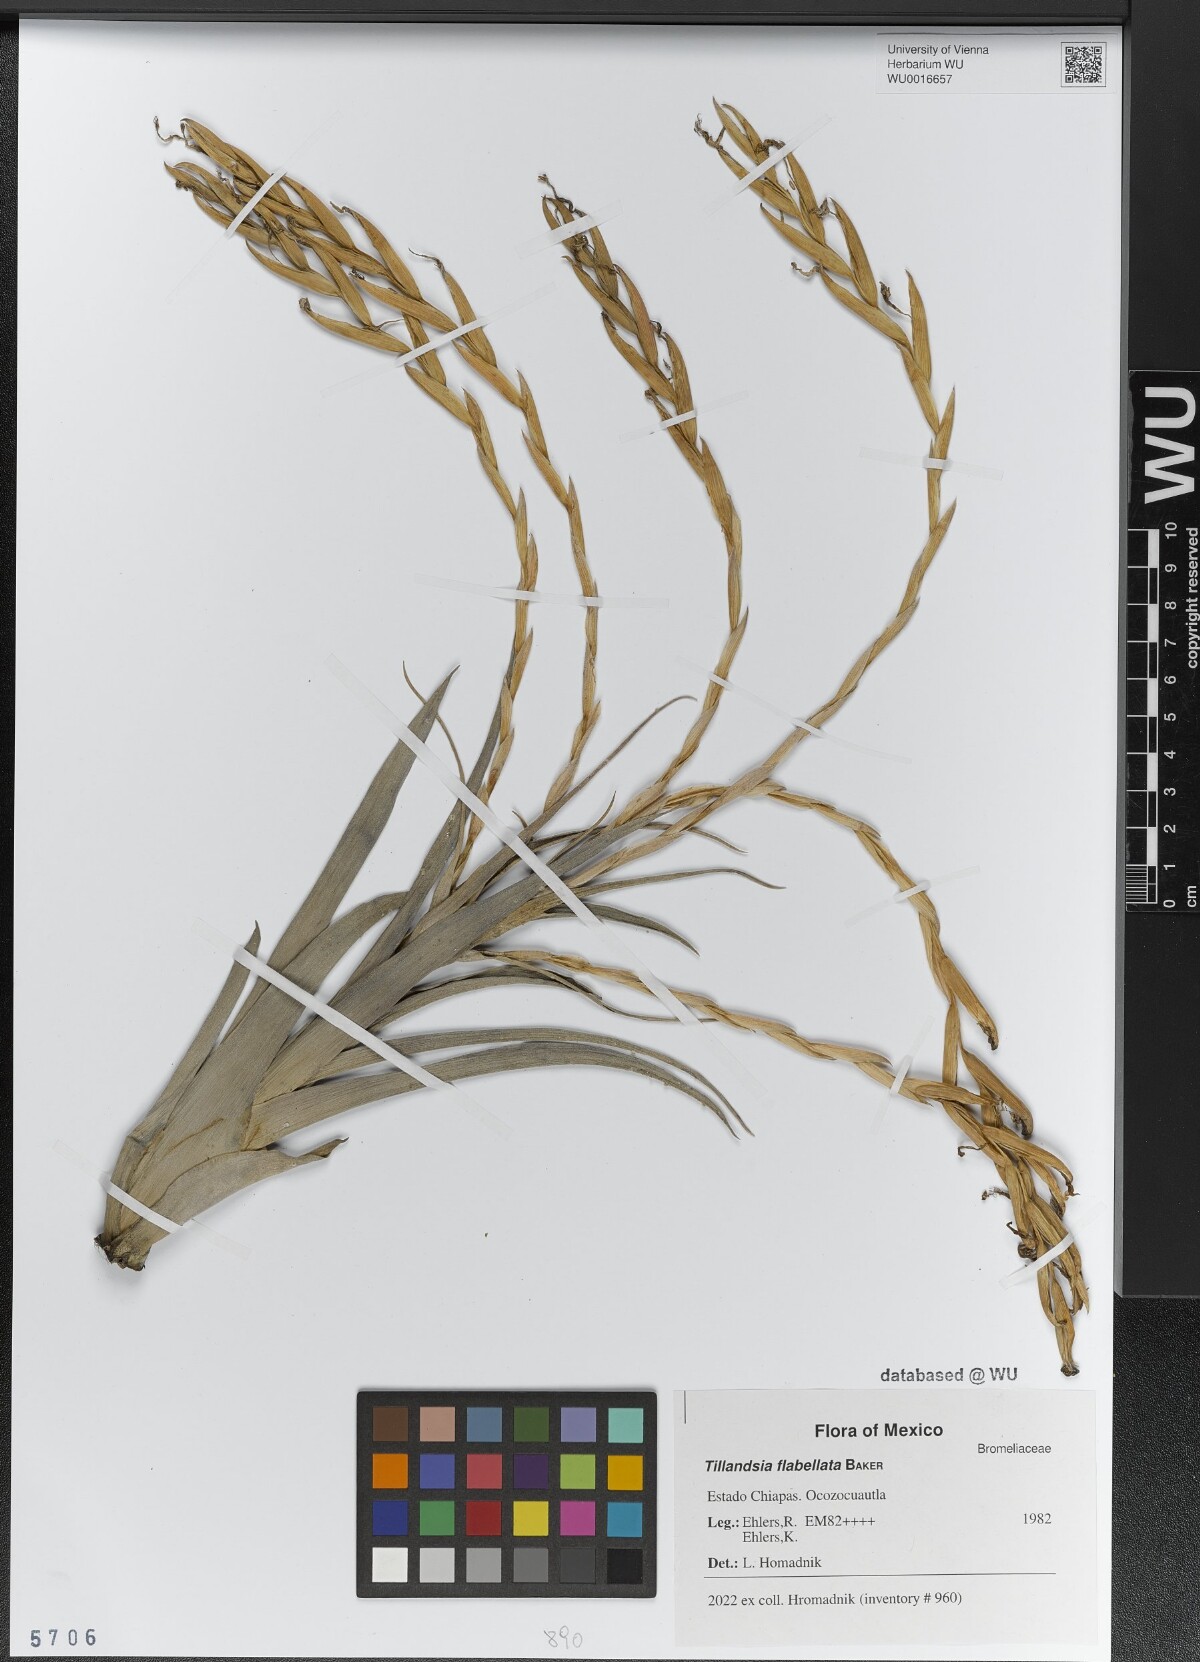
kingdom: Plantae
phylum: Tracheophyta
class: Liliopsida
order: Poales
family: Bromeliaceae
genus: Tillandsia
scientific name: Tillandsia flabellata
